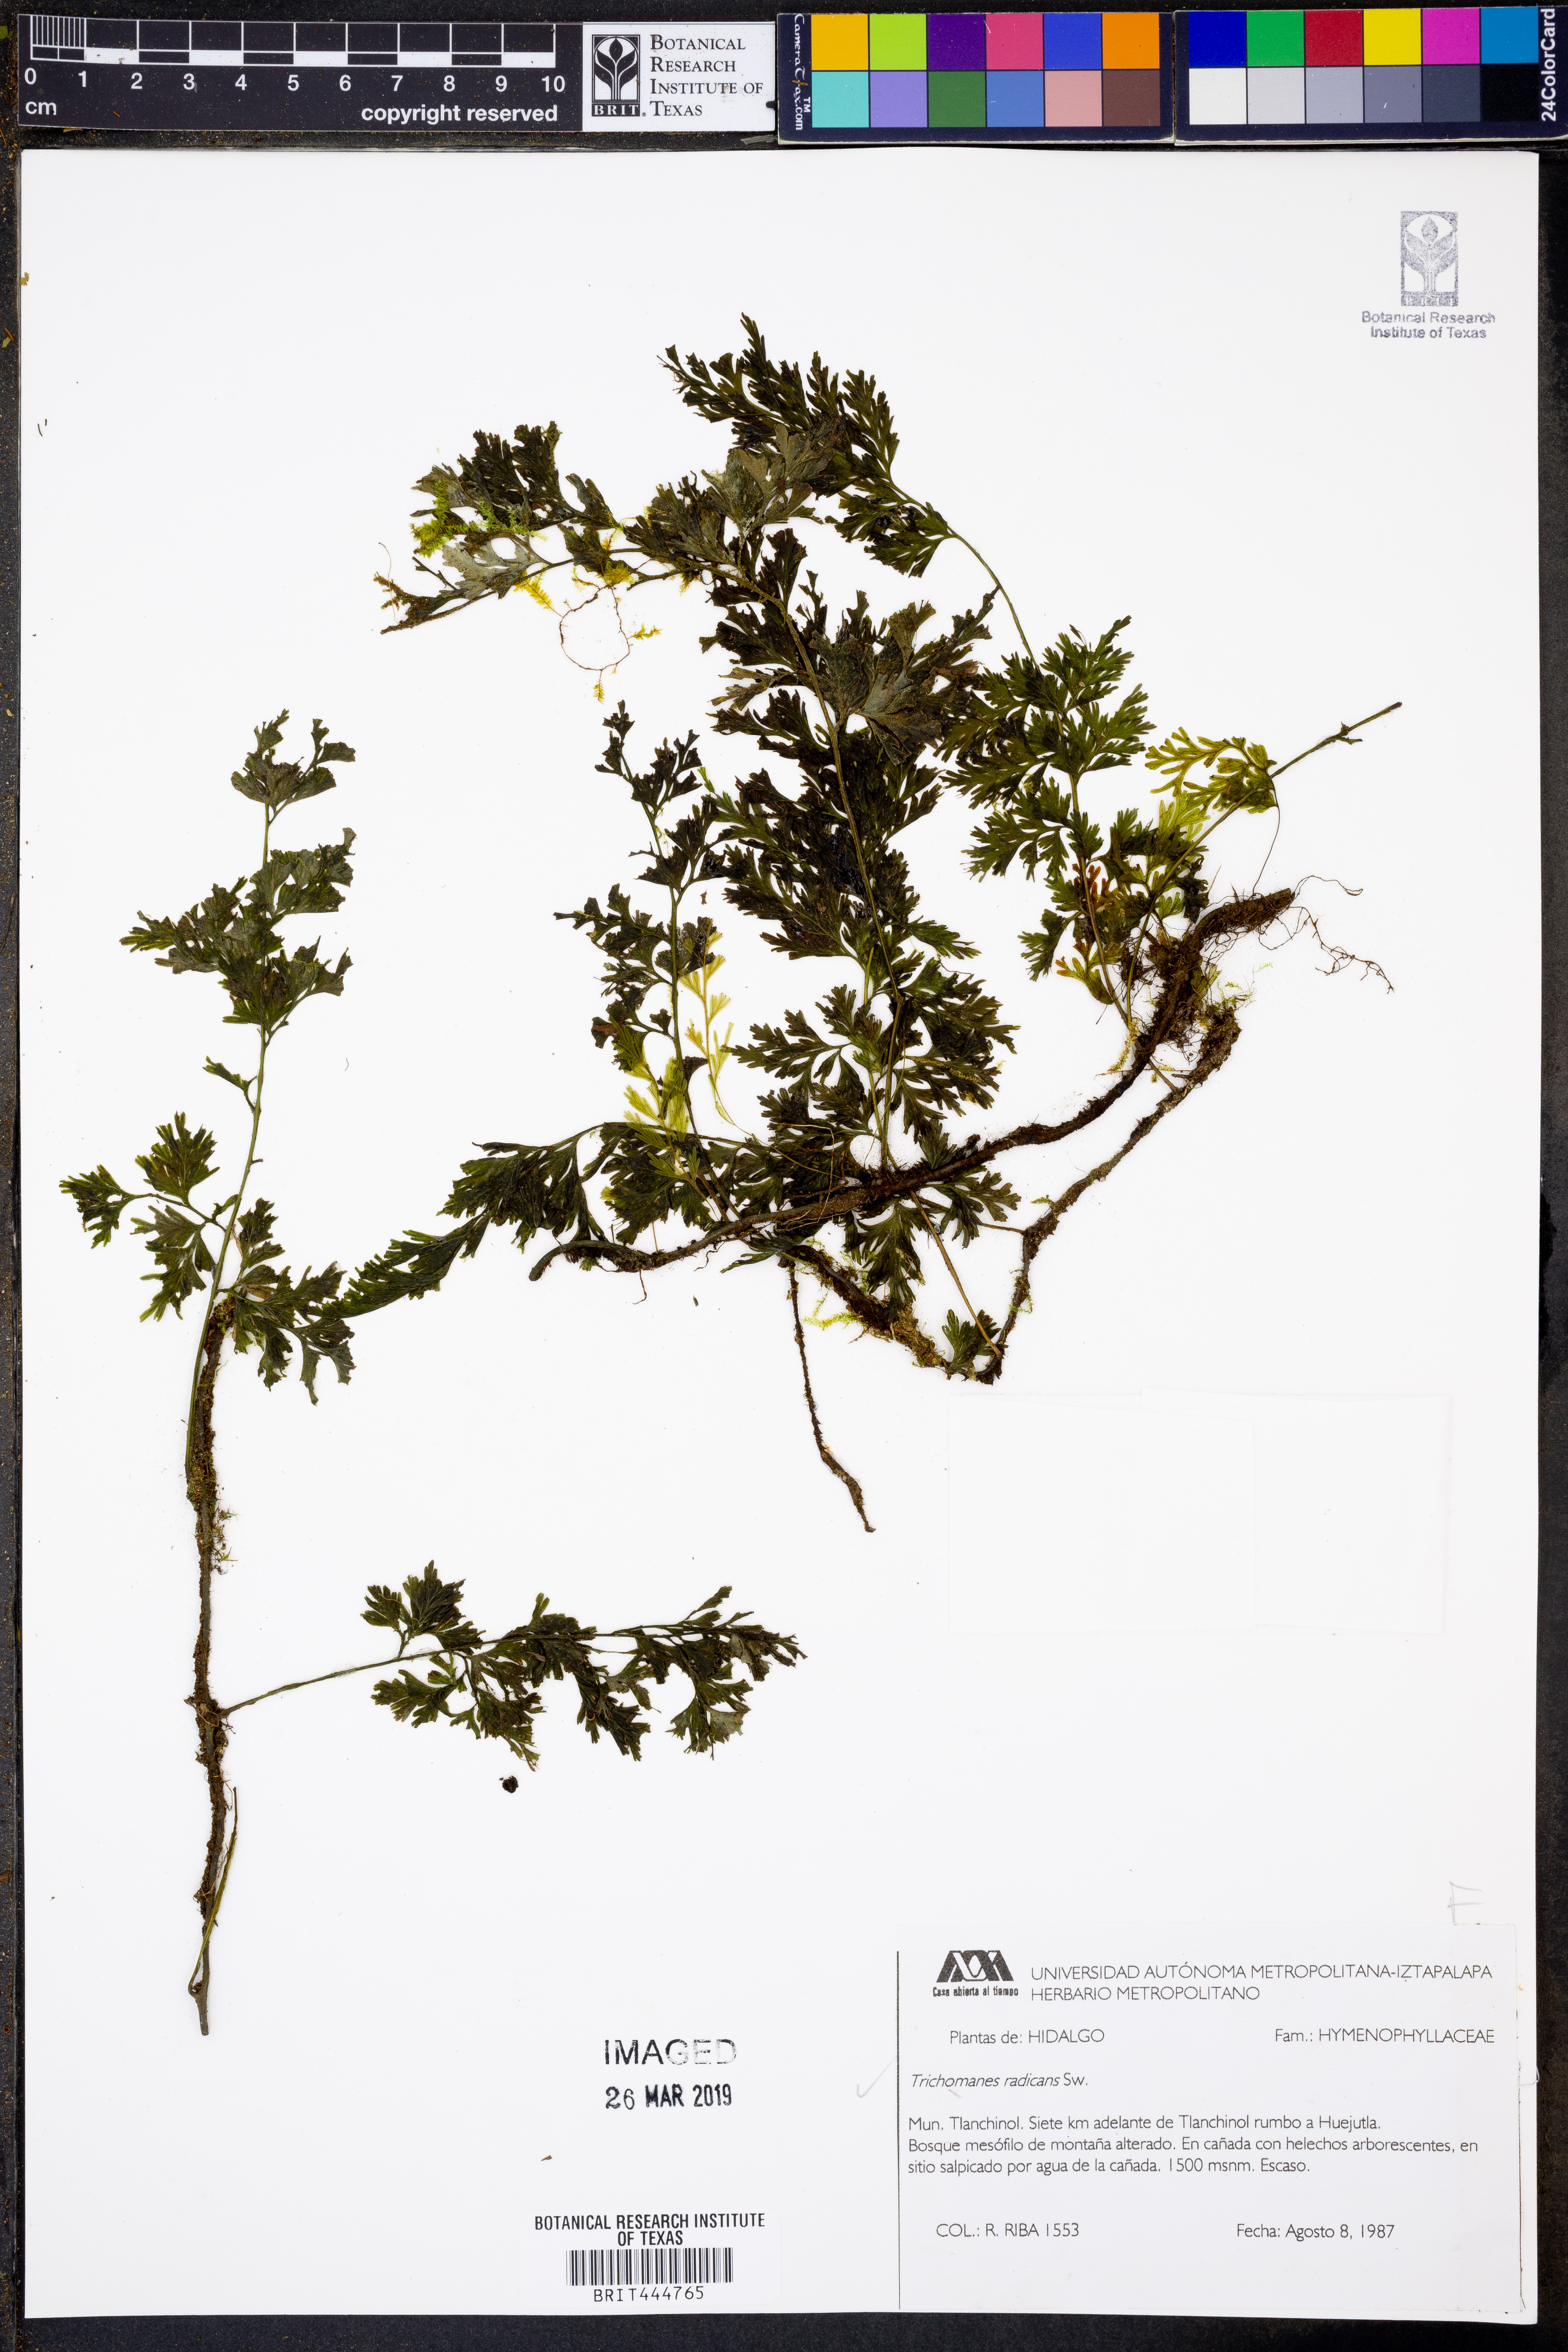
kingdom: Plantae
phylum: Tracheophyta
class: Polypodiopsida
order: Hymenophyllales
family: Hymenophyllaceae
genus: Vandenboschia
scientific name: Vandenboschia radicans
